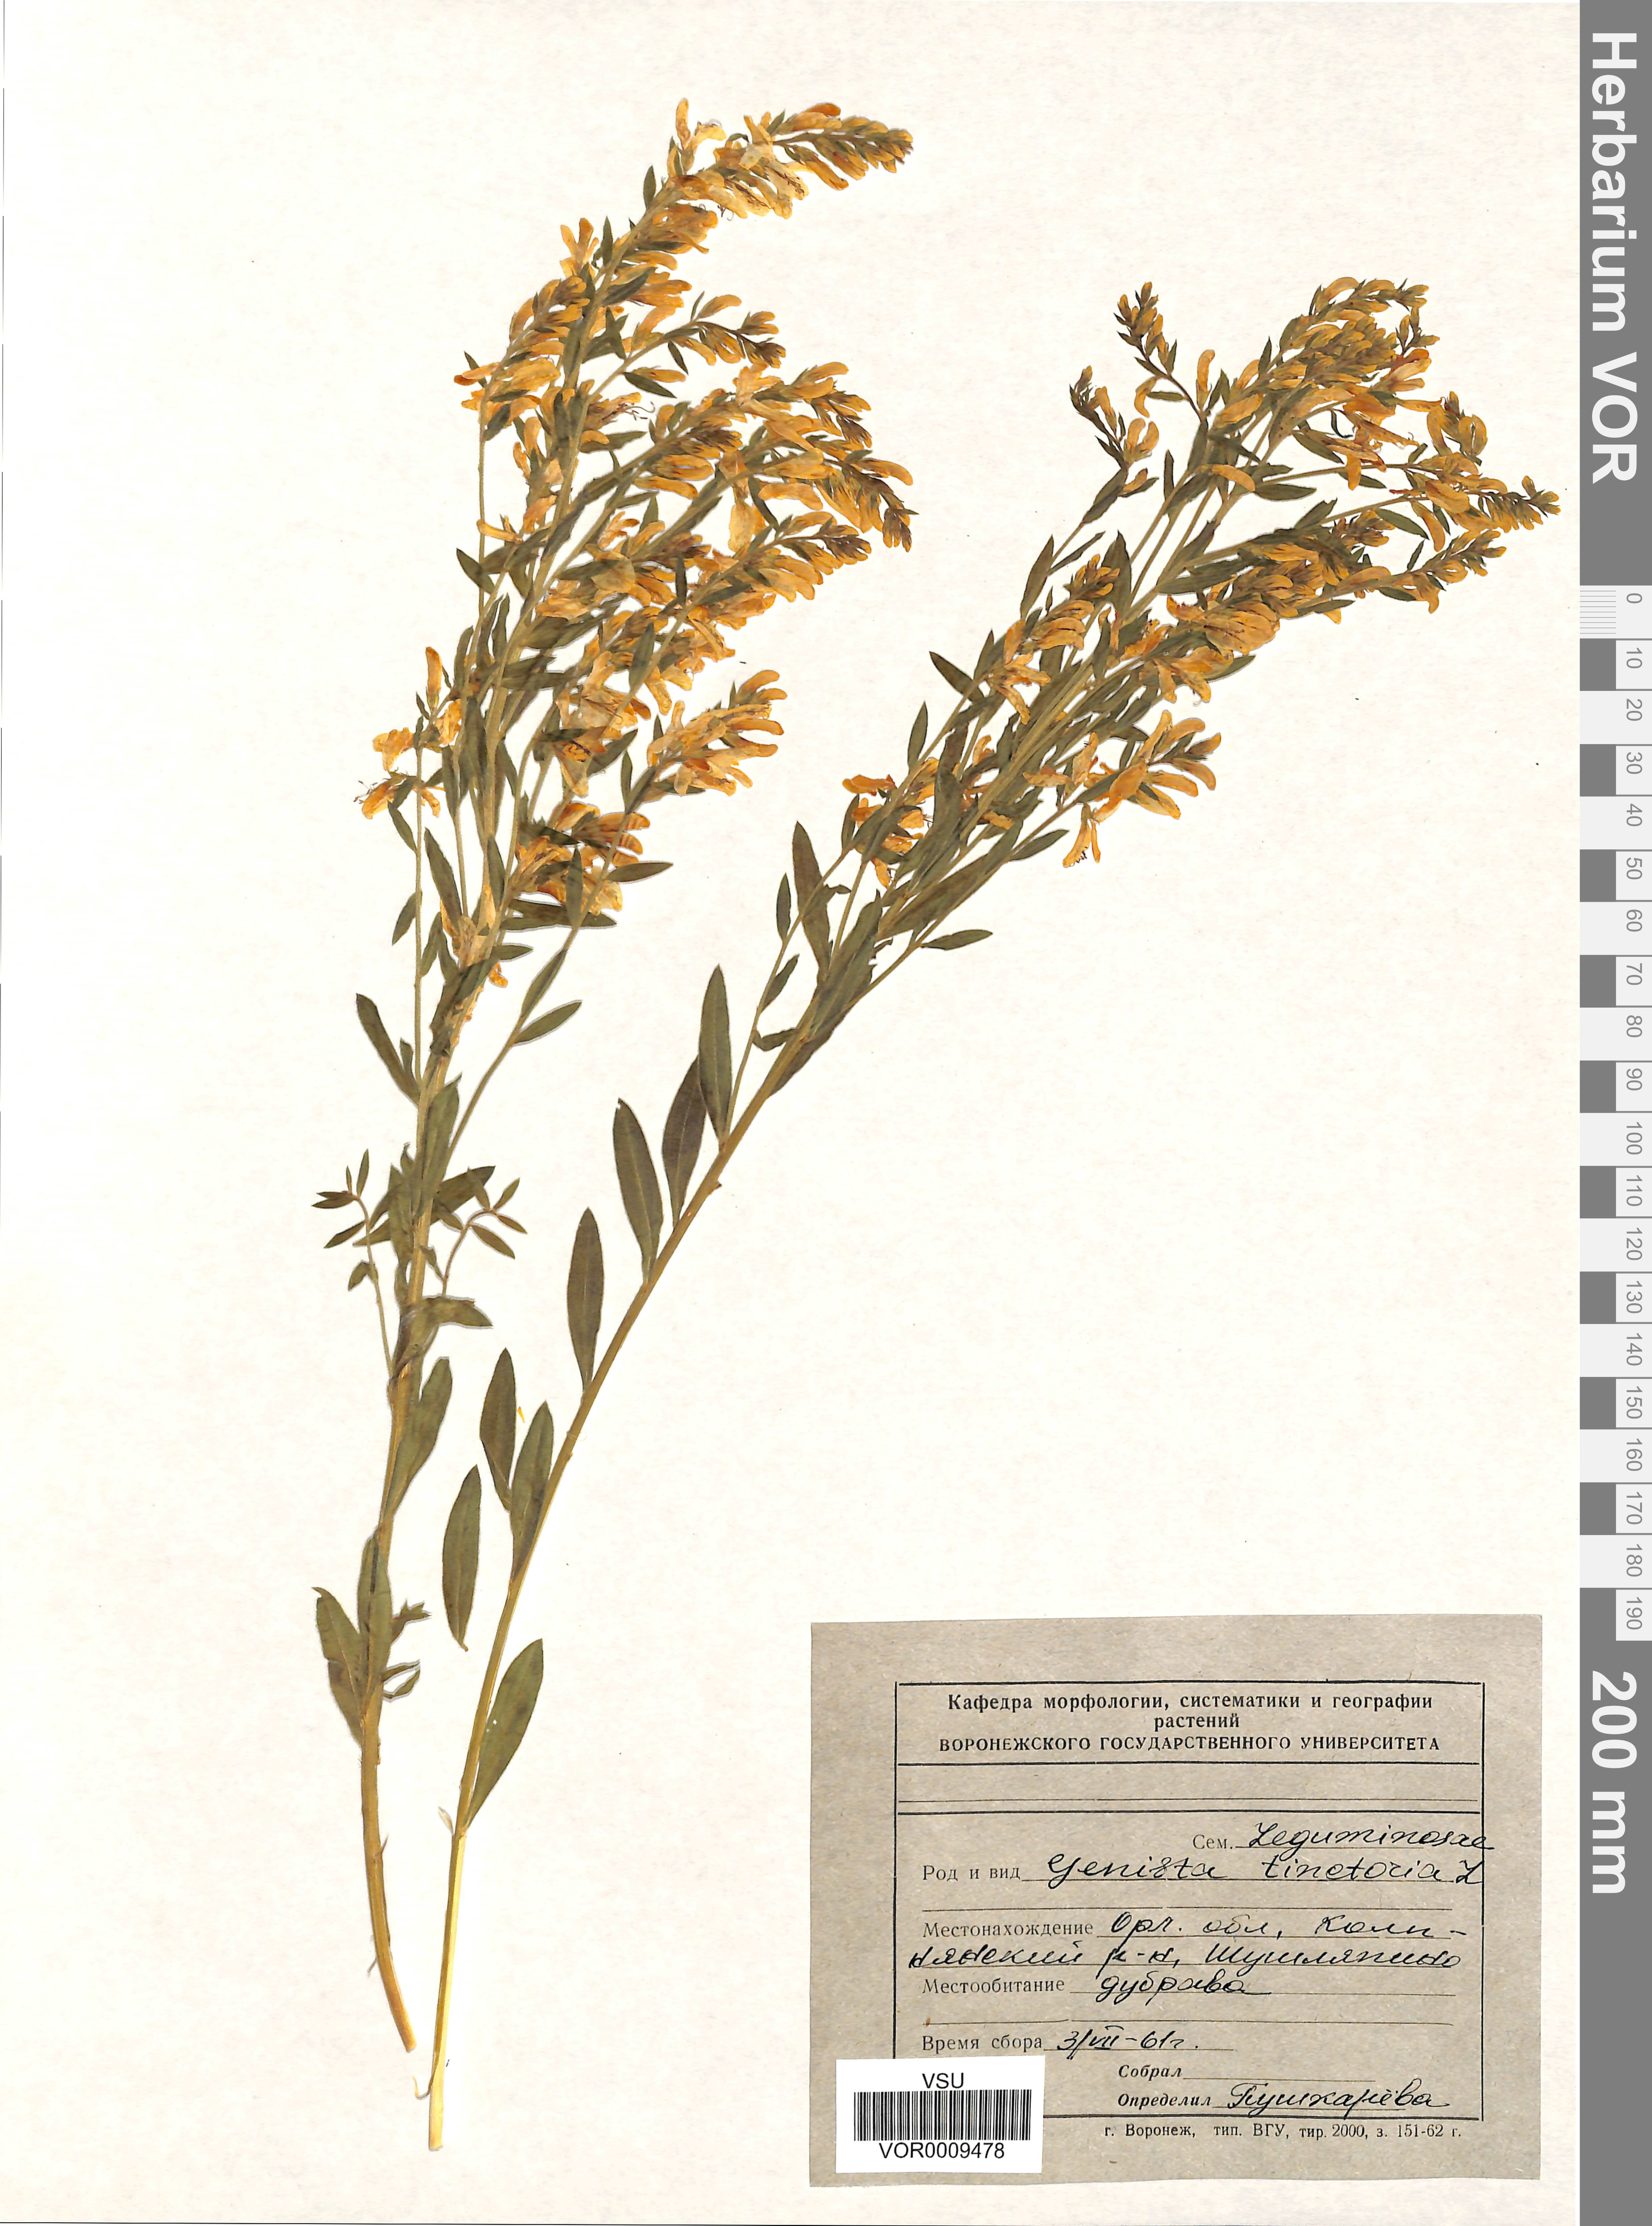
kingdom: Plantae
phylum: Tracheophyta
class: Magnoliopsida
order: Fabales
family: Fabaceae
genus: Genista
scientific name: Genista tinctoria
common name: Dyer's greenweed
